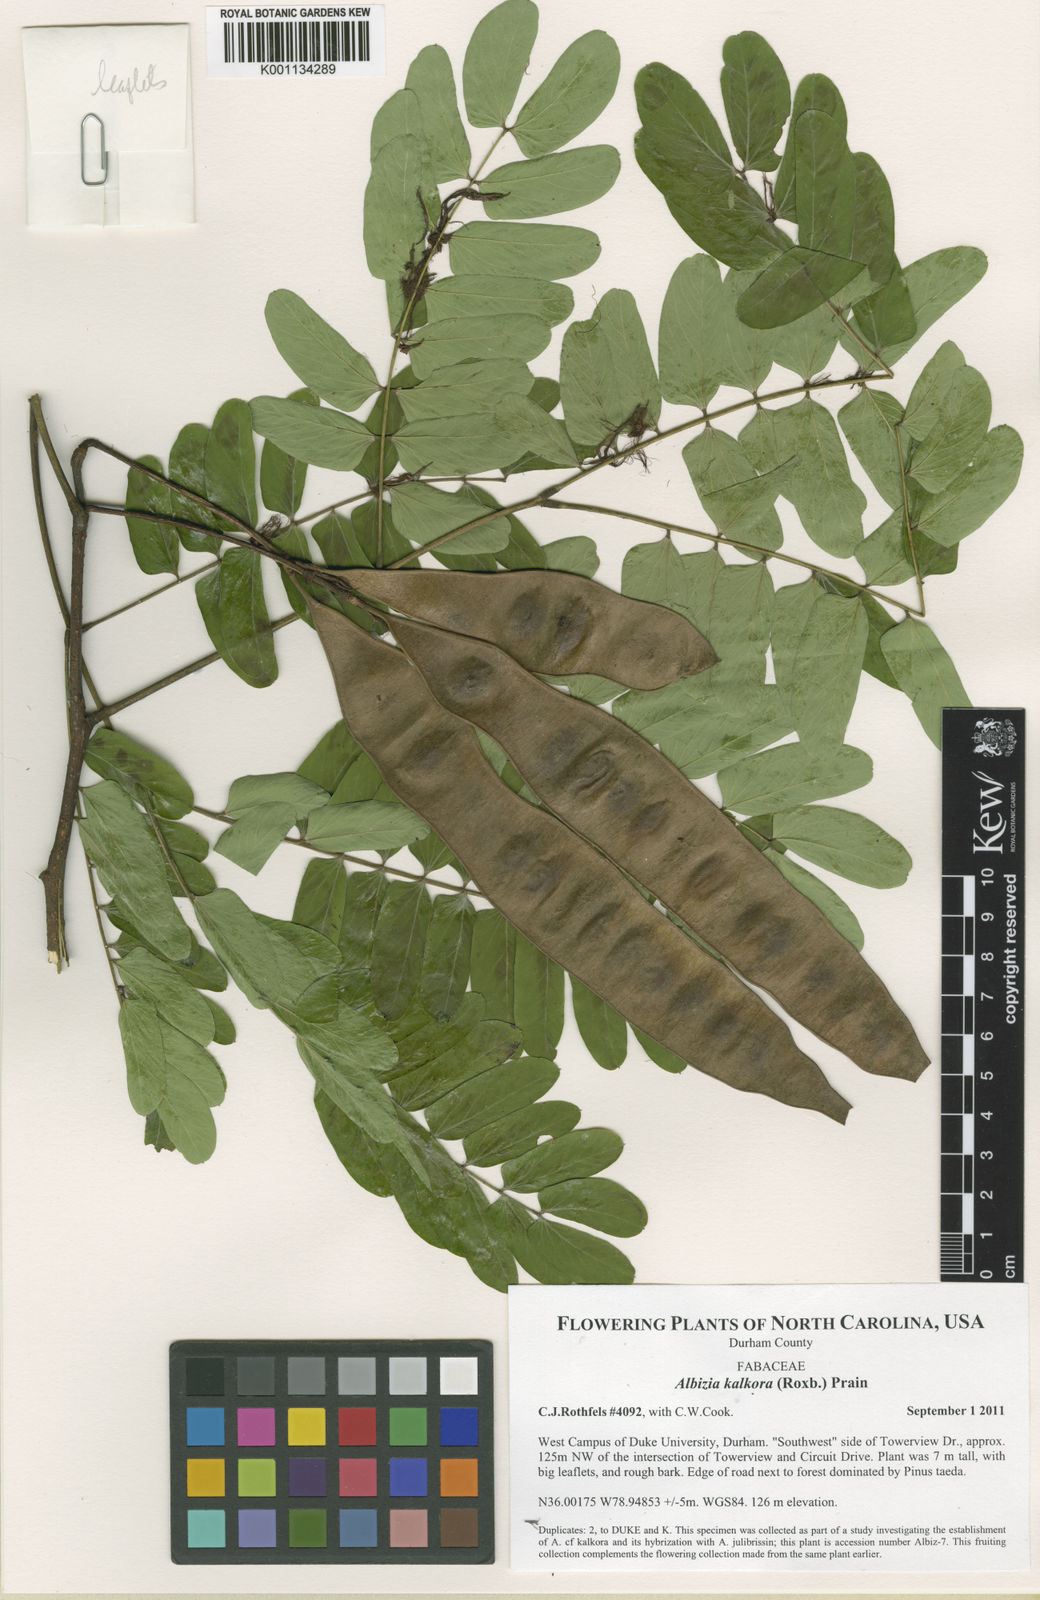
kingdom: Plantae
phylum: Tracheophyta
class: Magnoliopsida
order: Fabales
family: Fabaceae
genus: Albizia
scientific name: Albizia kalkora
